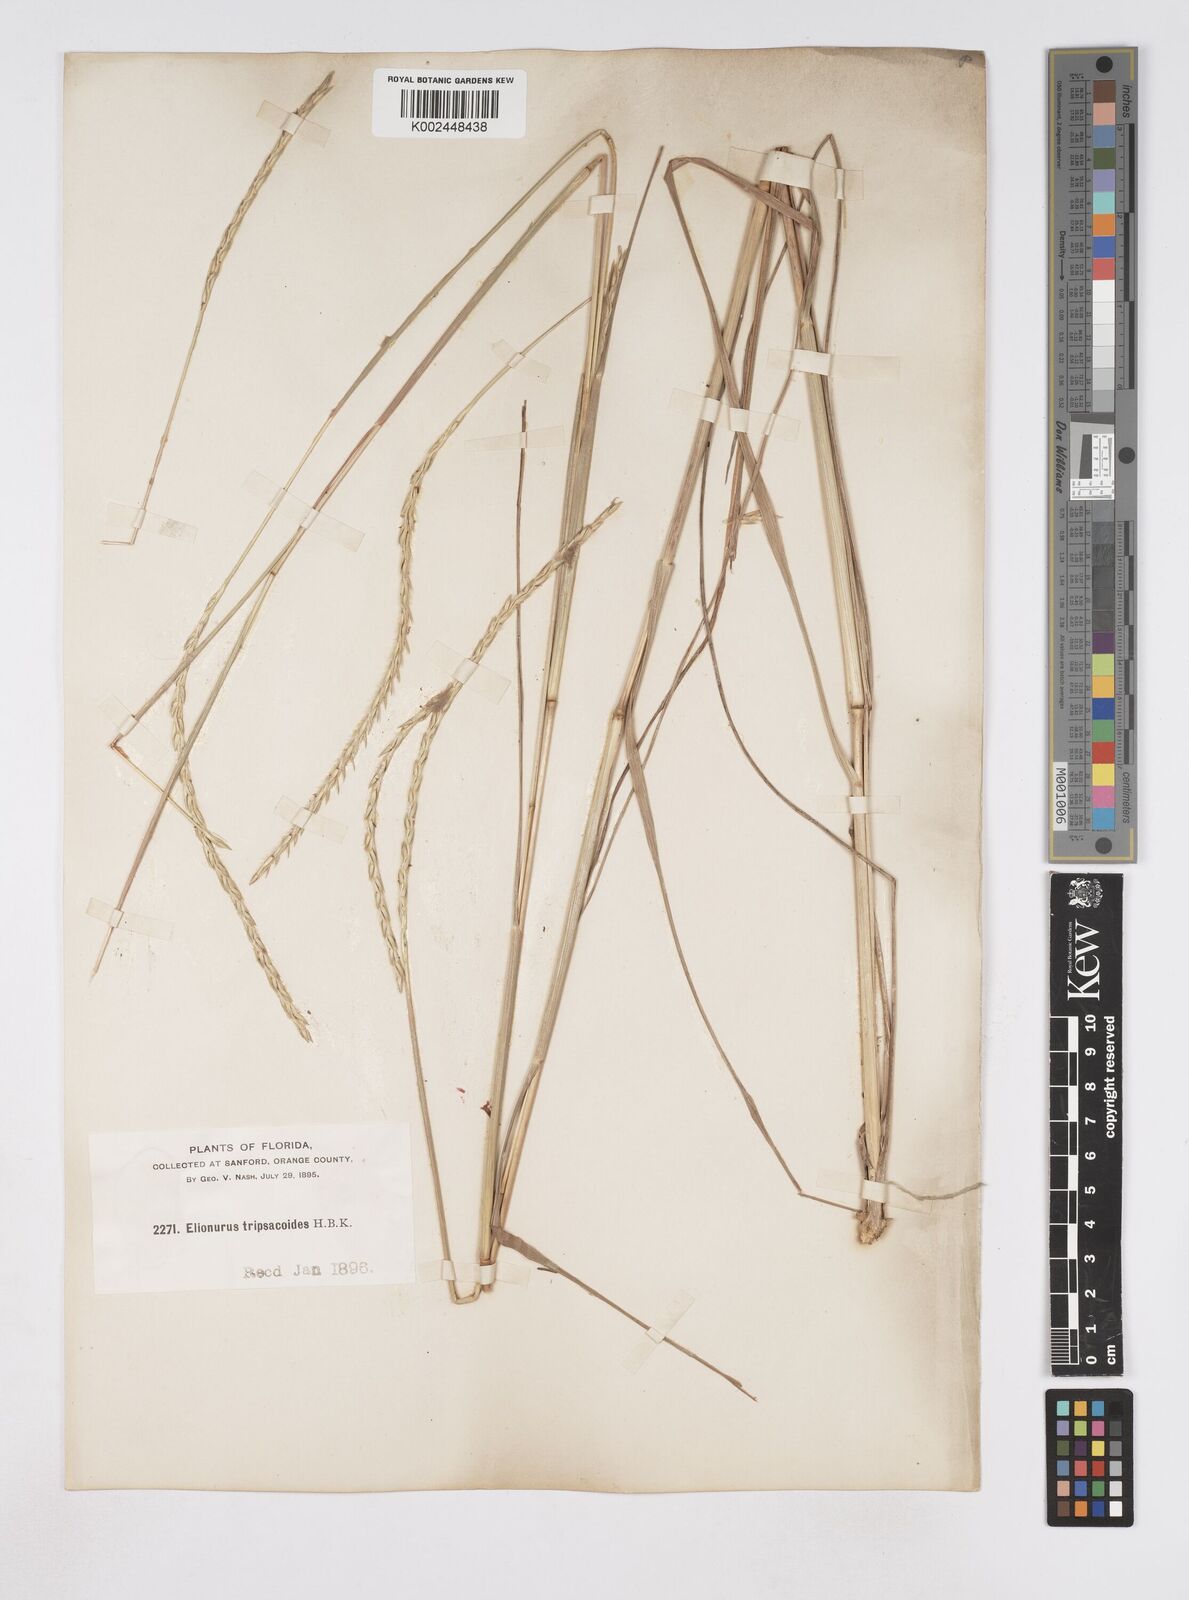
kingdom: Plantae
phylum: Tracheophyta
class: Liliopsida
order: Poales
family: Poaceae
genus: Elionurus
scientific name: Elionurus tripsacoides
